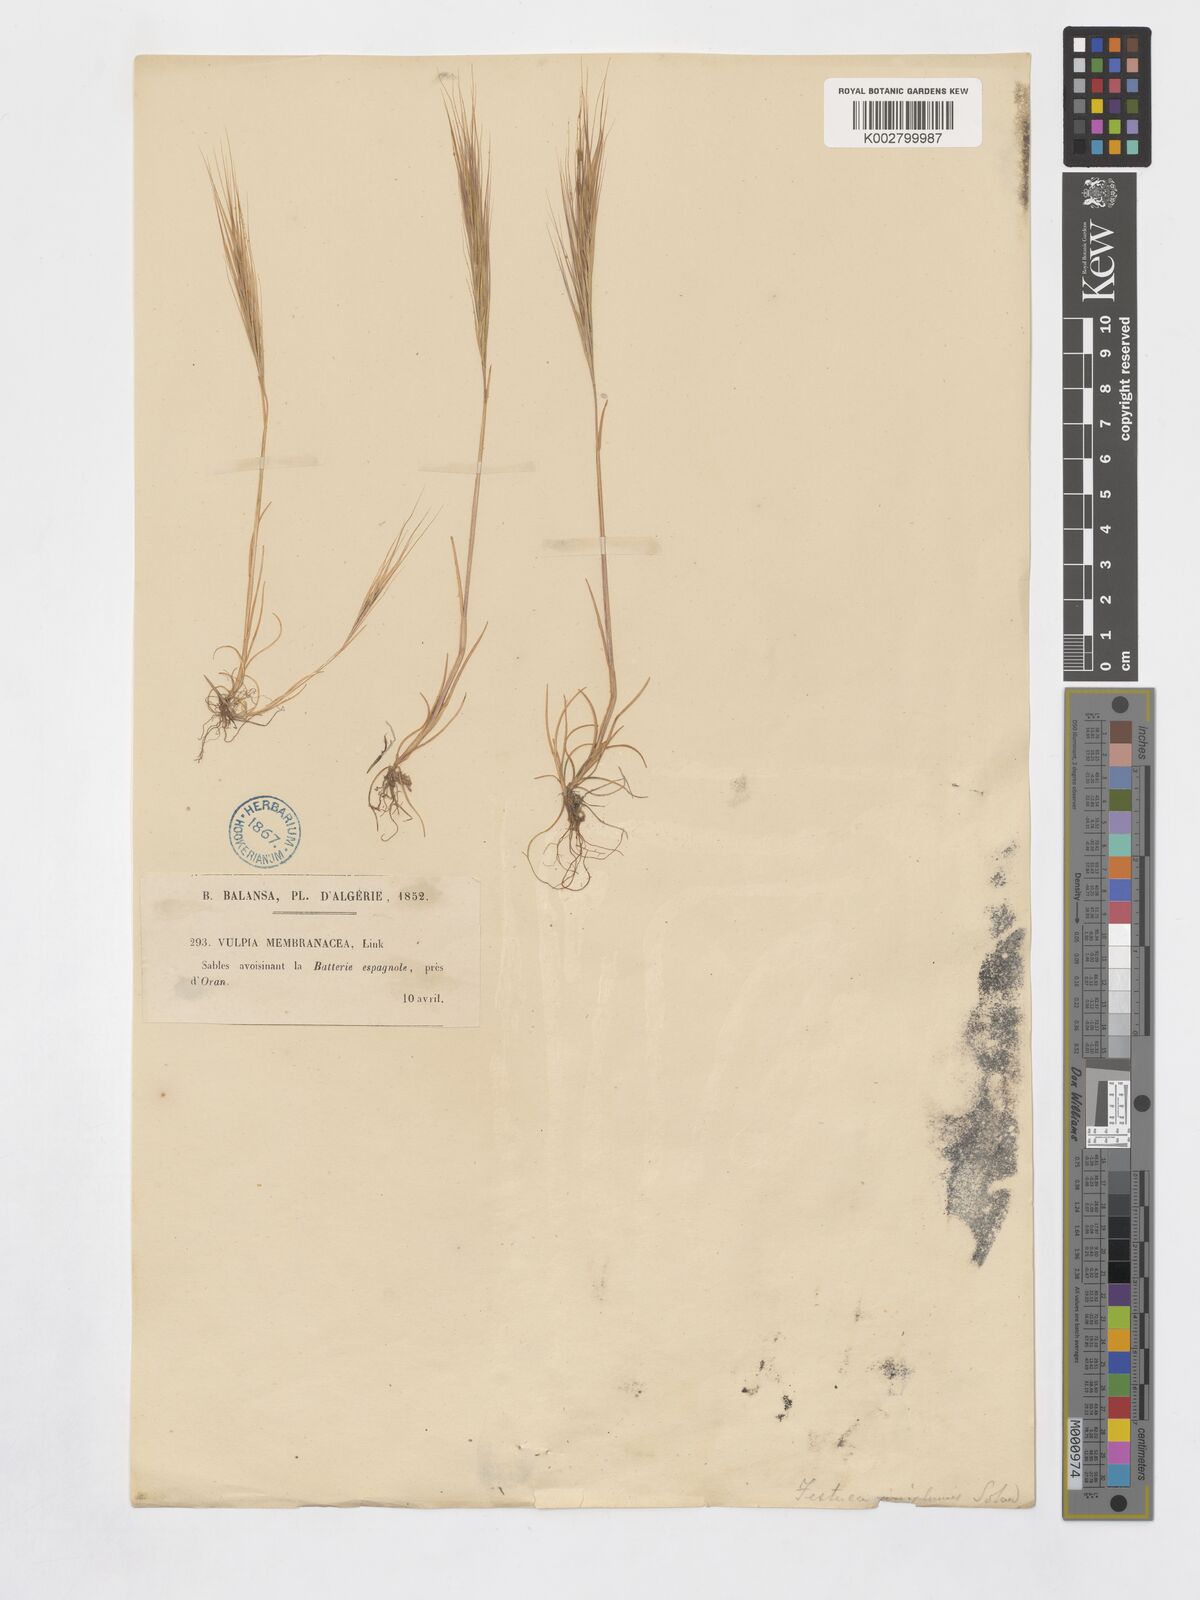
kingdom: Plantae
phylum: Tracheophyta
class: Liliopsida
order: Poales
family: Poaceae
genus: Festuca
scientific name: Festuca membranacea
